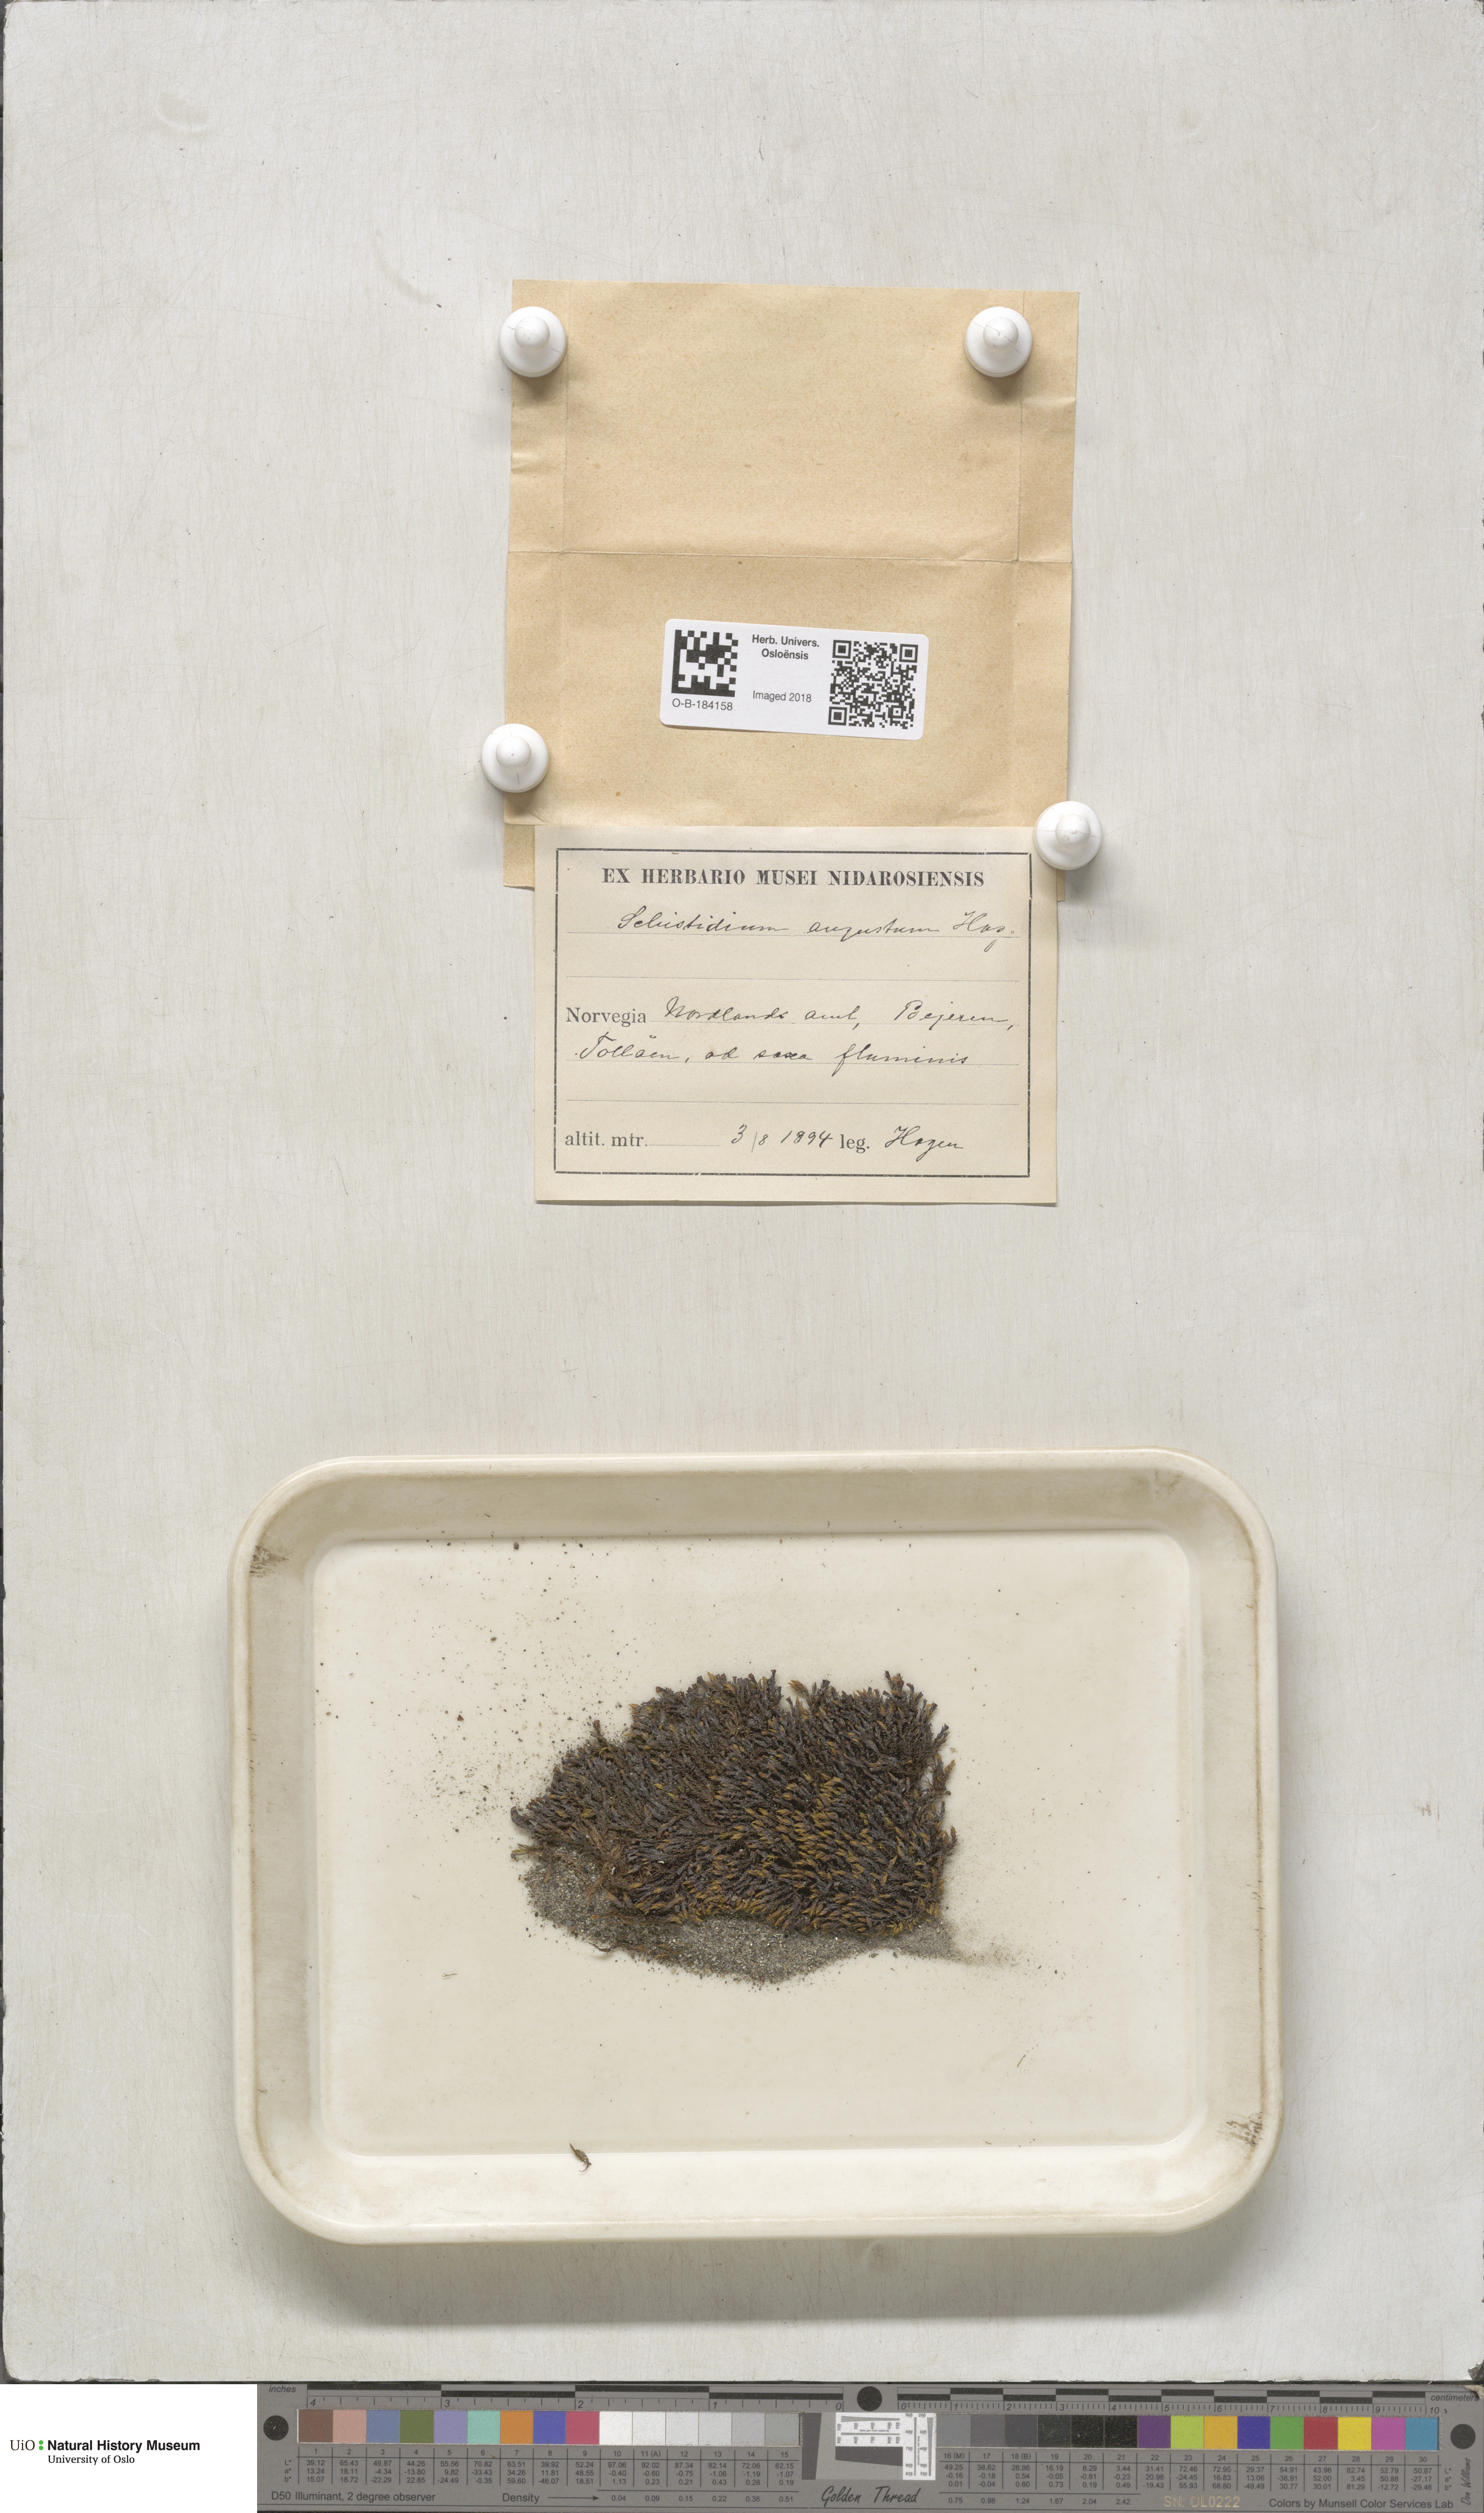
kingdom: Plantae
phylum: Bryophyta
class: Bryopsida
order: Grimmiales
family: Grimmiaceae
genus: Schistidium
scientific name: Schistidium agassizii
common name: Agassiz's bloom moss
